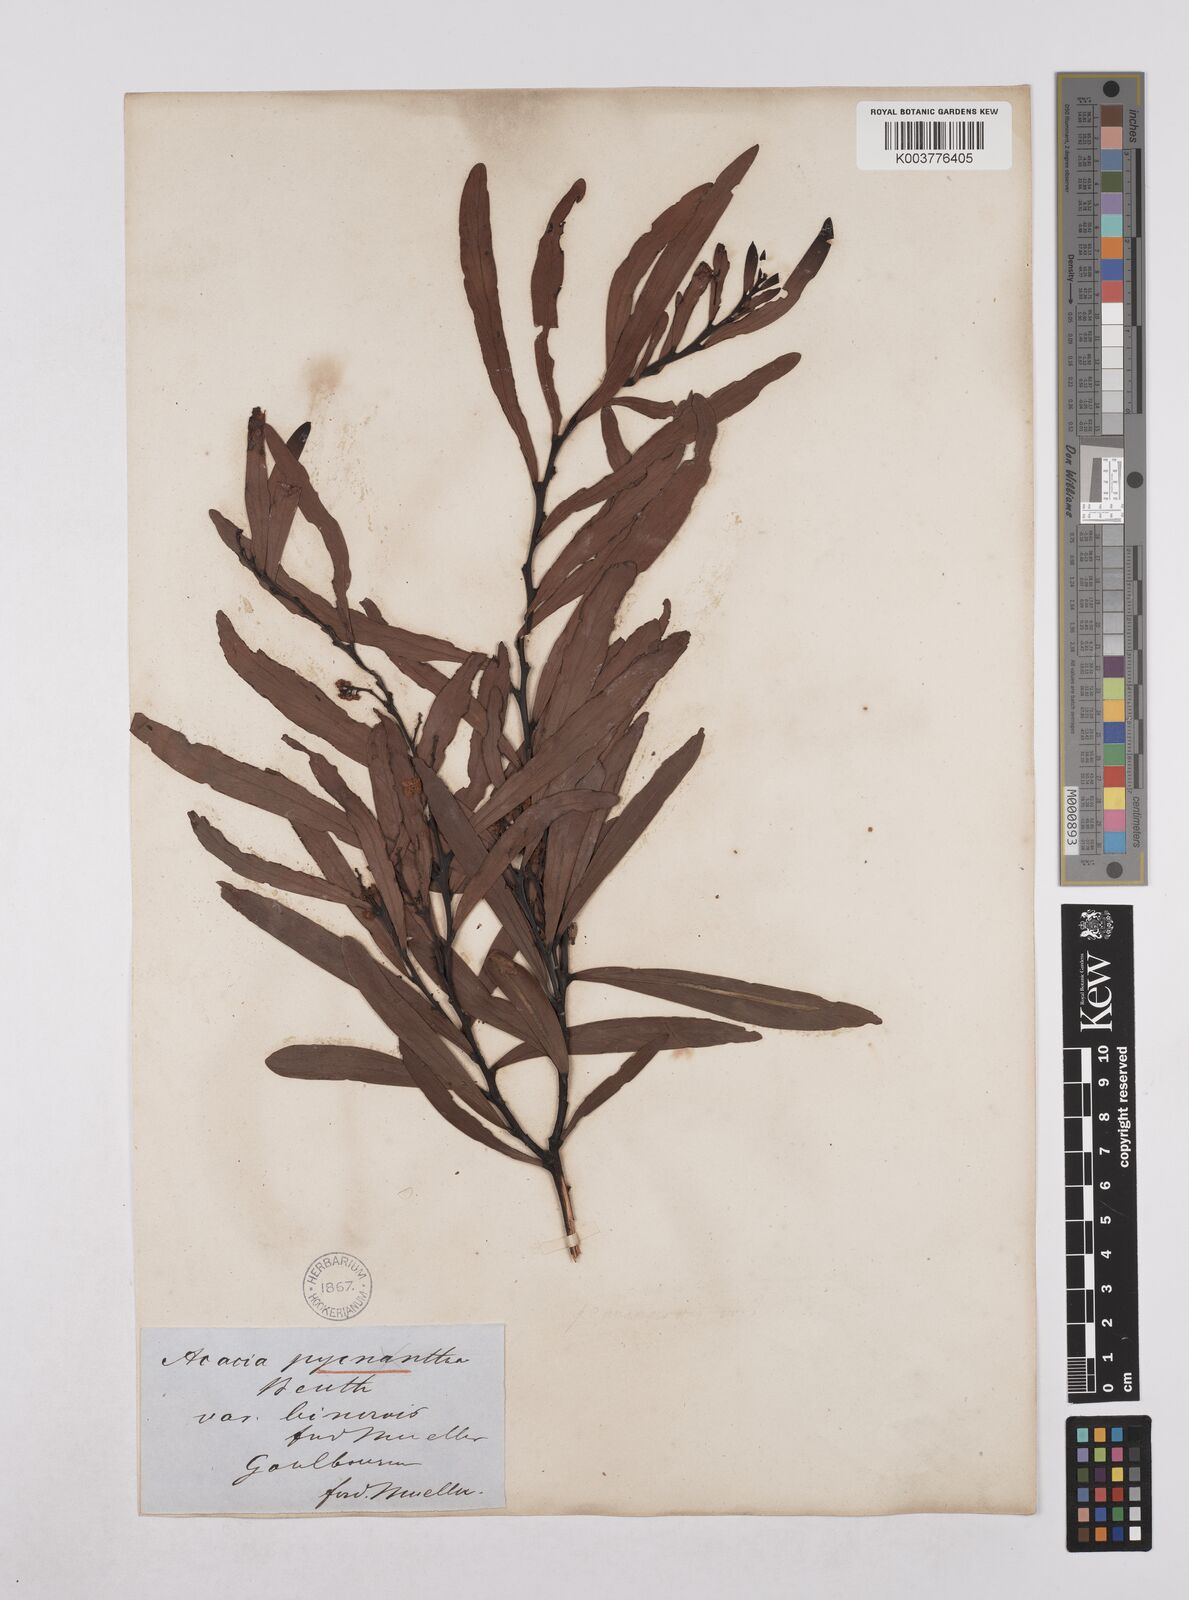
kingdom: Plantae
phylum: Tracheophyta
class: Magnoliopsida
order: Fabales
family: Fabaceae
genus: Acacia
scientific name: Acacia pycnantha
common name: Golden wattle
